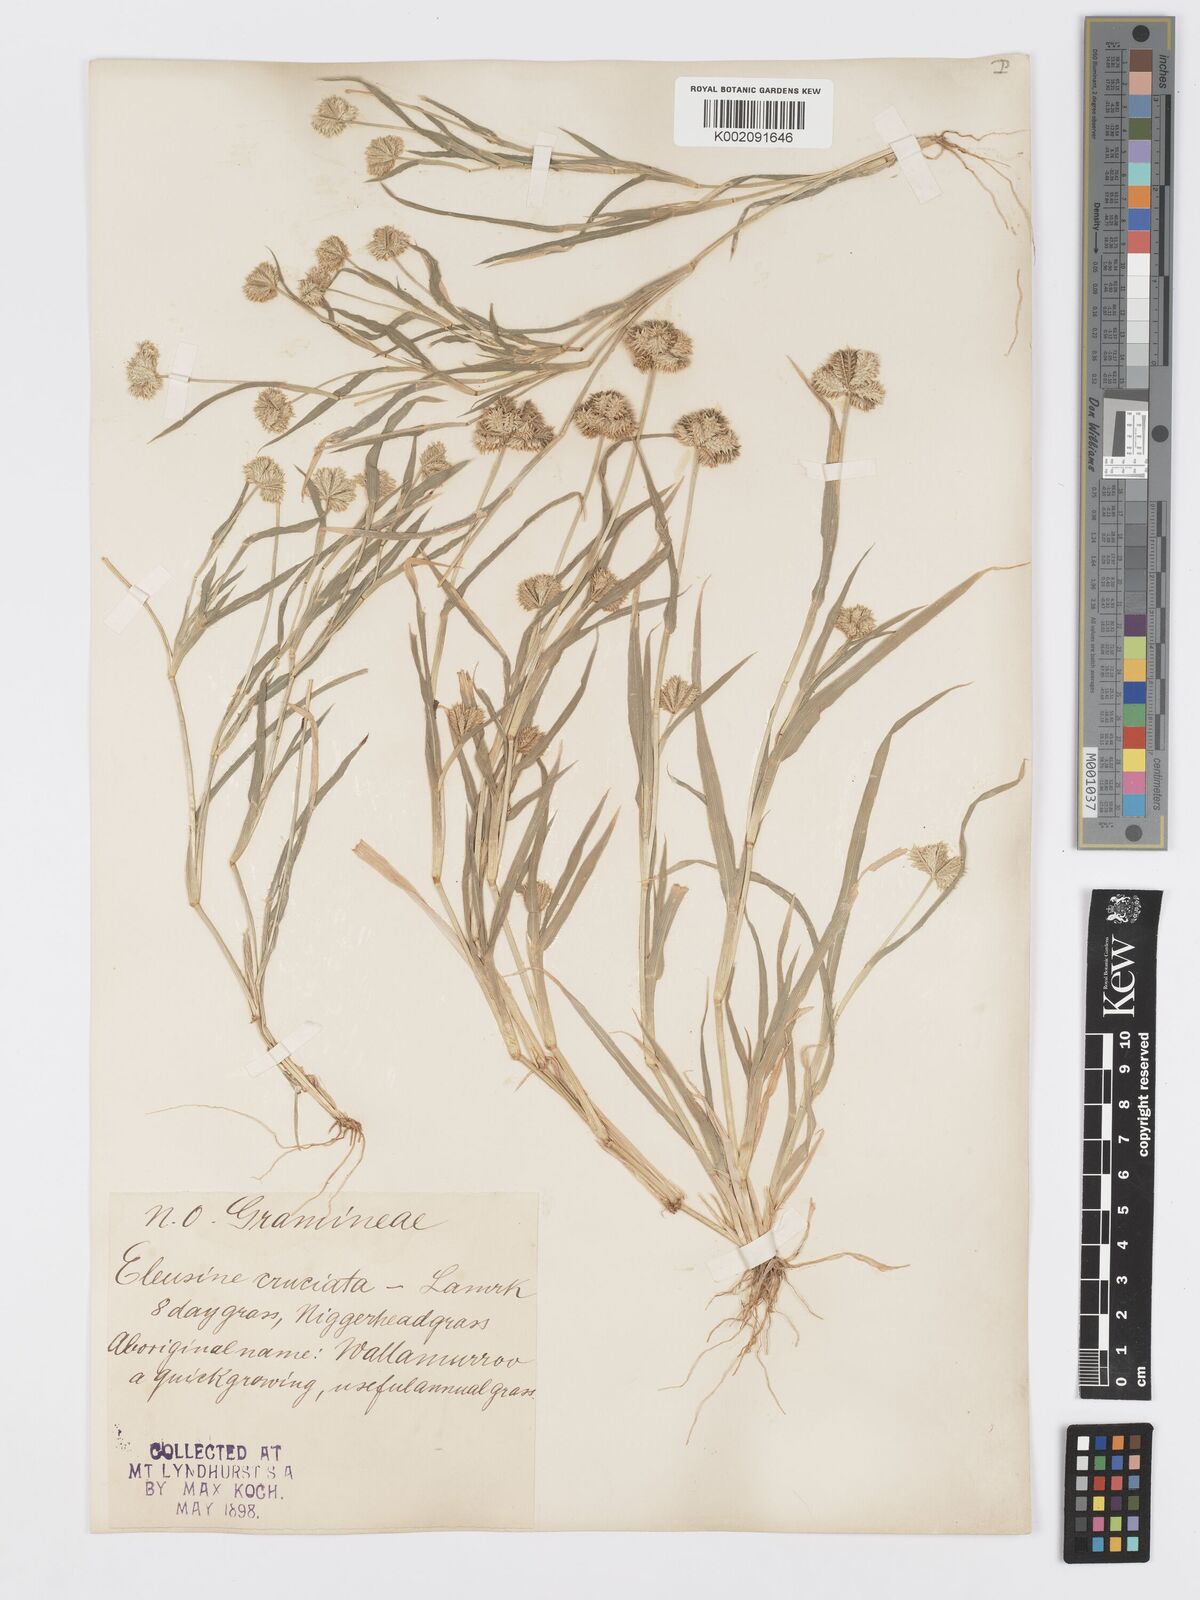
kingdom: Plantae
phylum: Tracheophyta
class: Liliopsida
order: Poales
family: Poaceae
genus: Dactyloctenium
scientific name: Dactyloctenium radulans
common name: Button-grass
